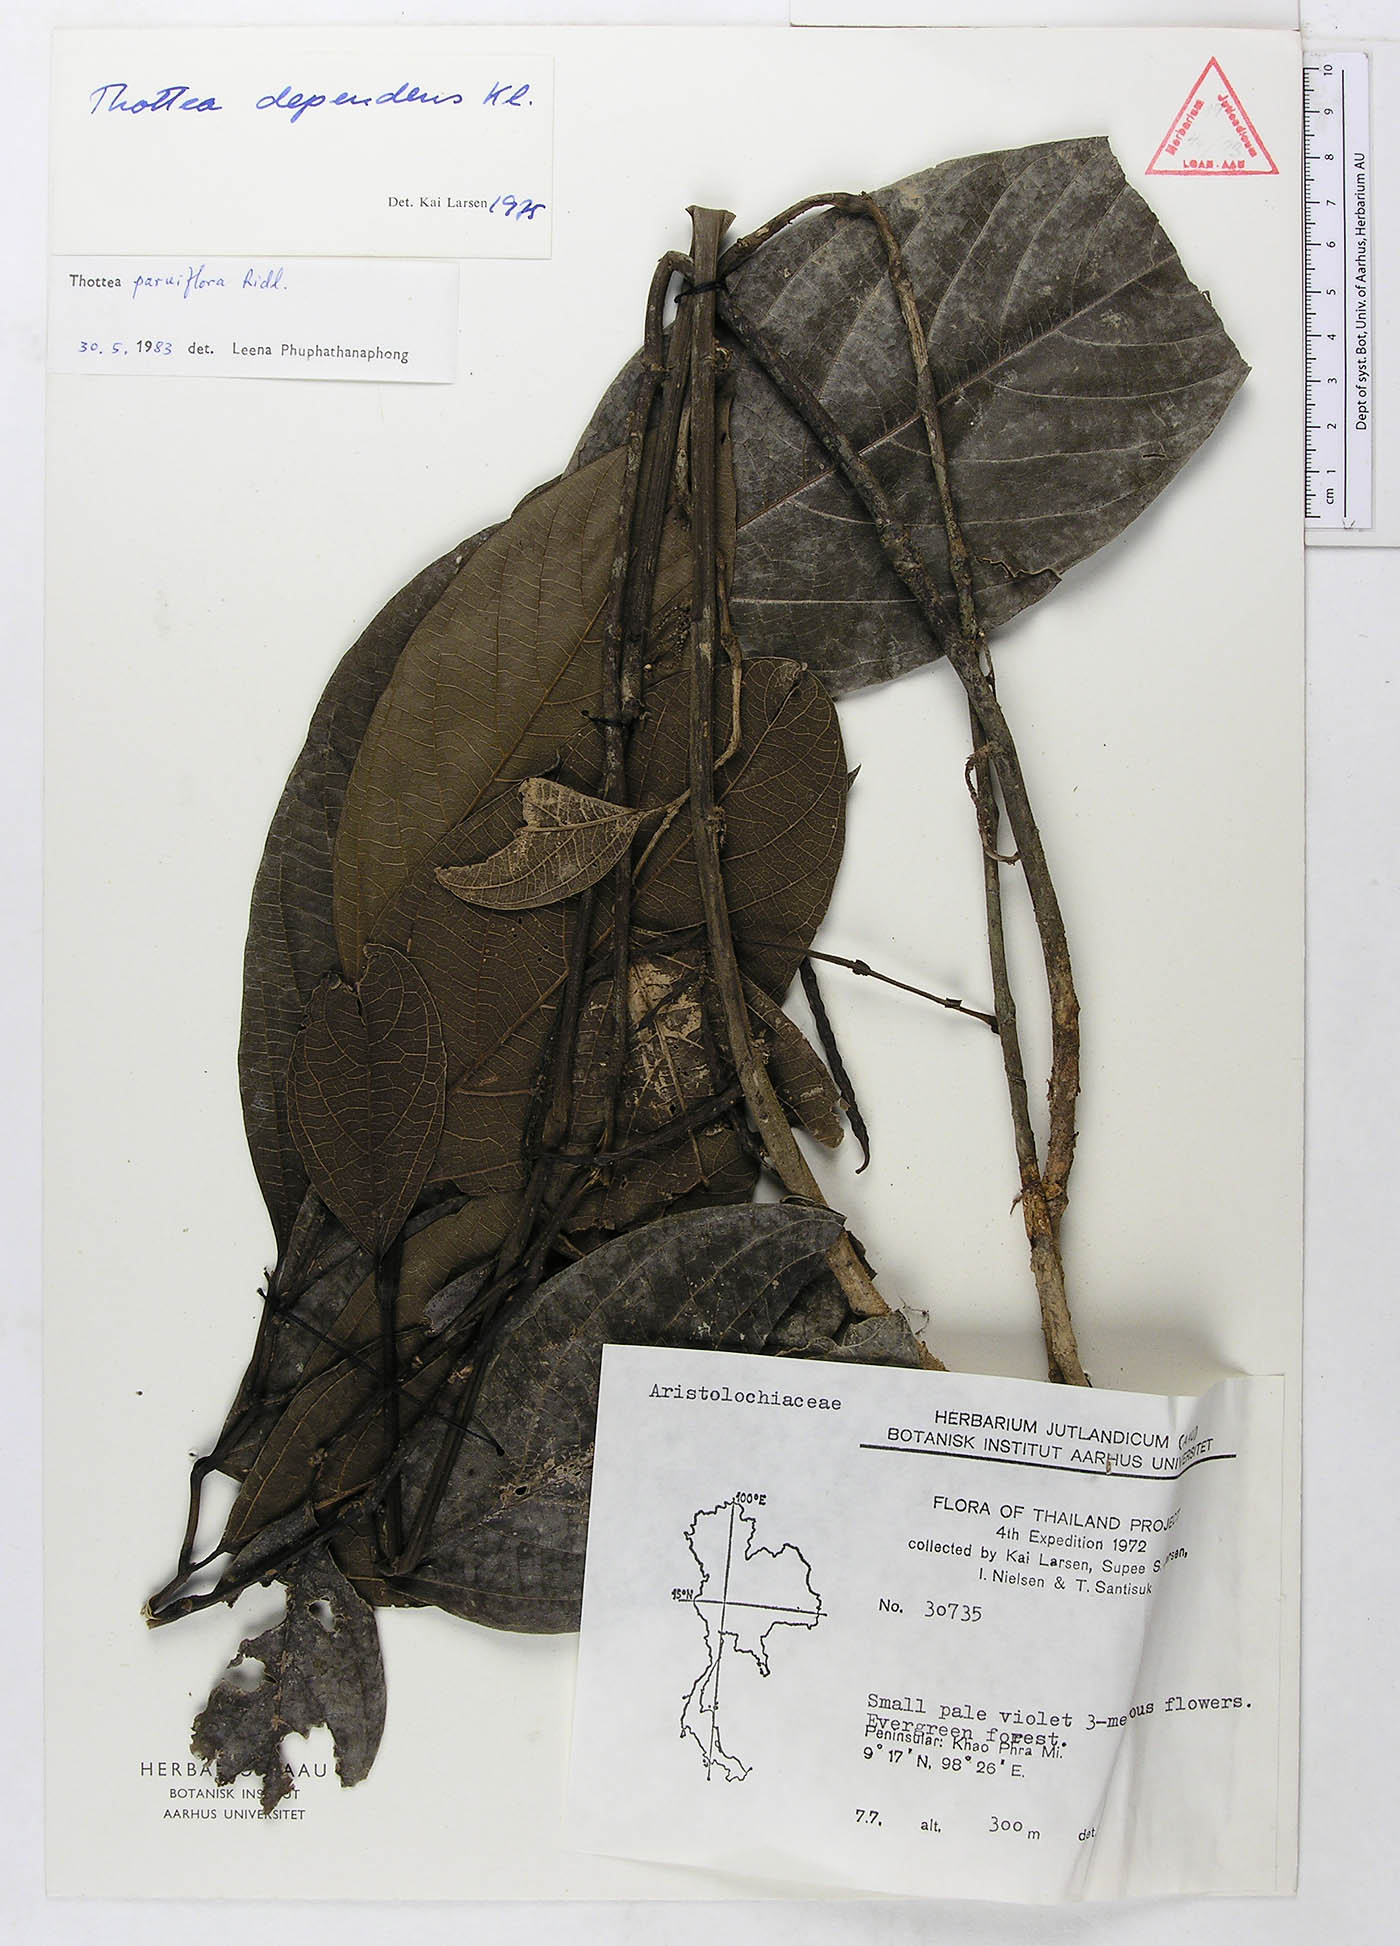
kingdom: Plantae
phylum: Tracheophyta
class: Magnoliopsida
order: Piperales
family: Aristolochiaceae
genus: Thottea
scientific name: Thottea parviflora
